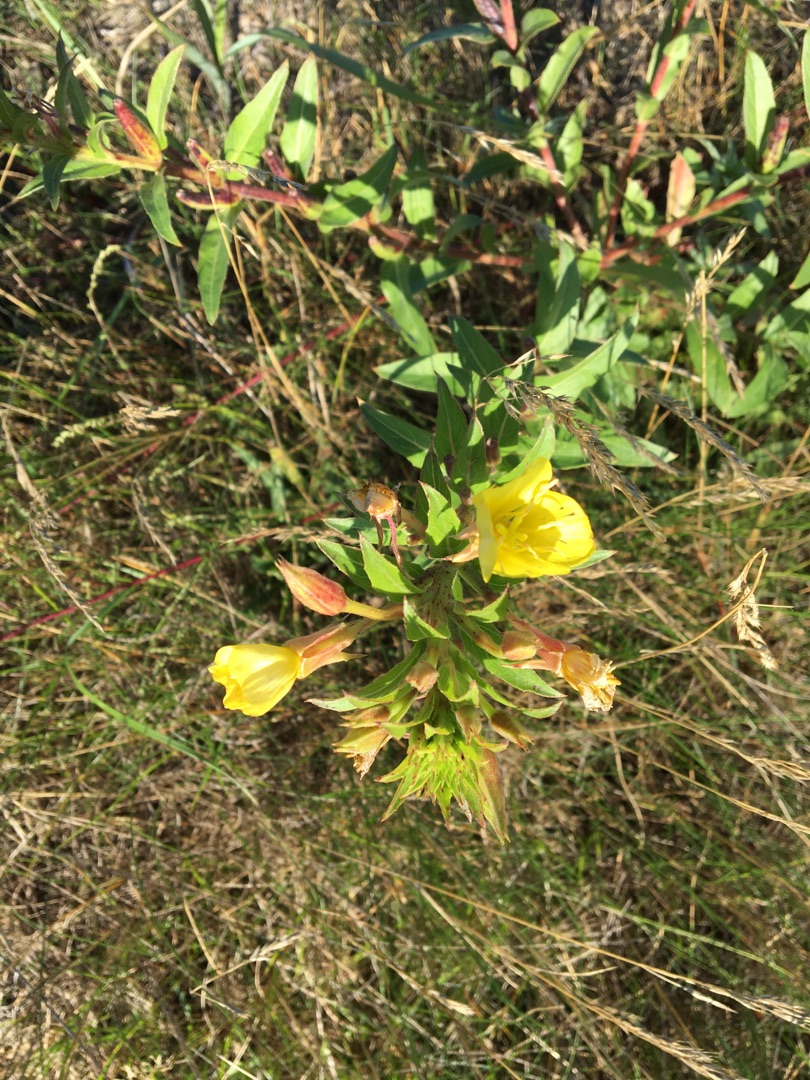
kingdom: Plantae
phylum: Tracheophyta
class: Magnoliopsida
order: Myrtales
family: Onagraceae
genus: Oenothera
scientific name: Oenothera fallax
